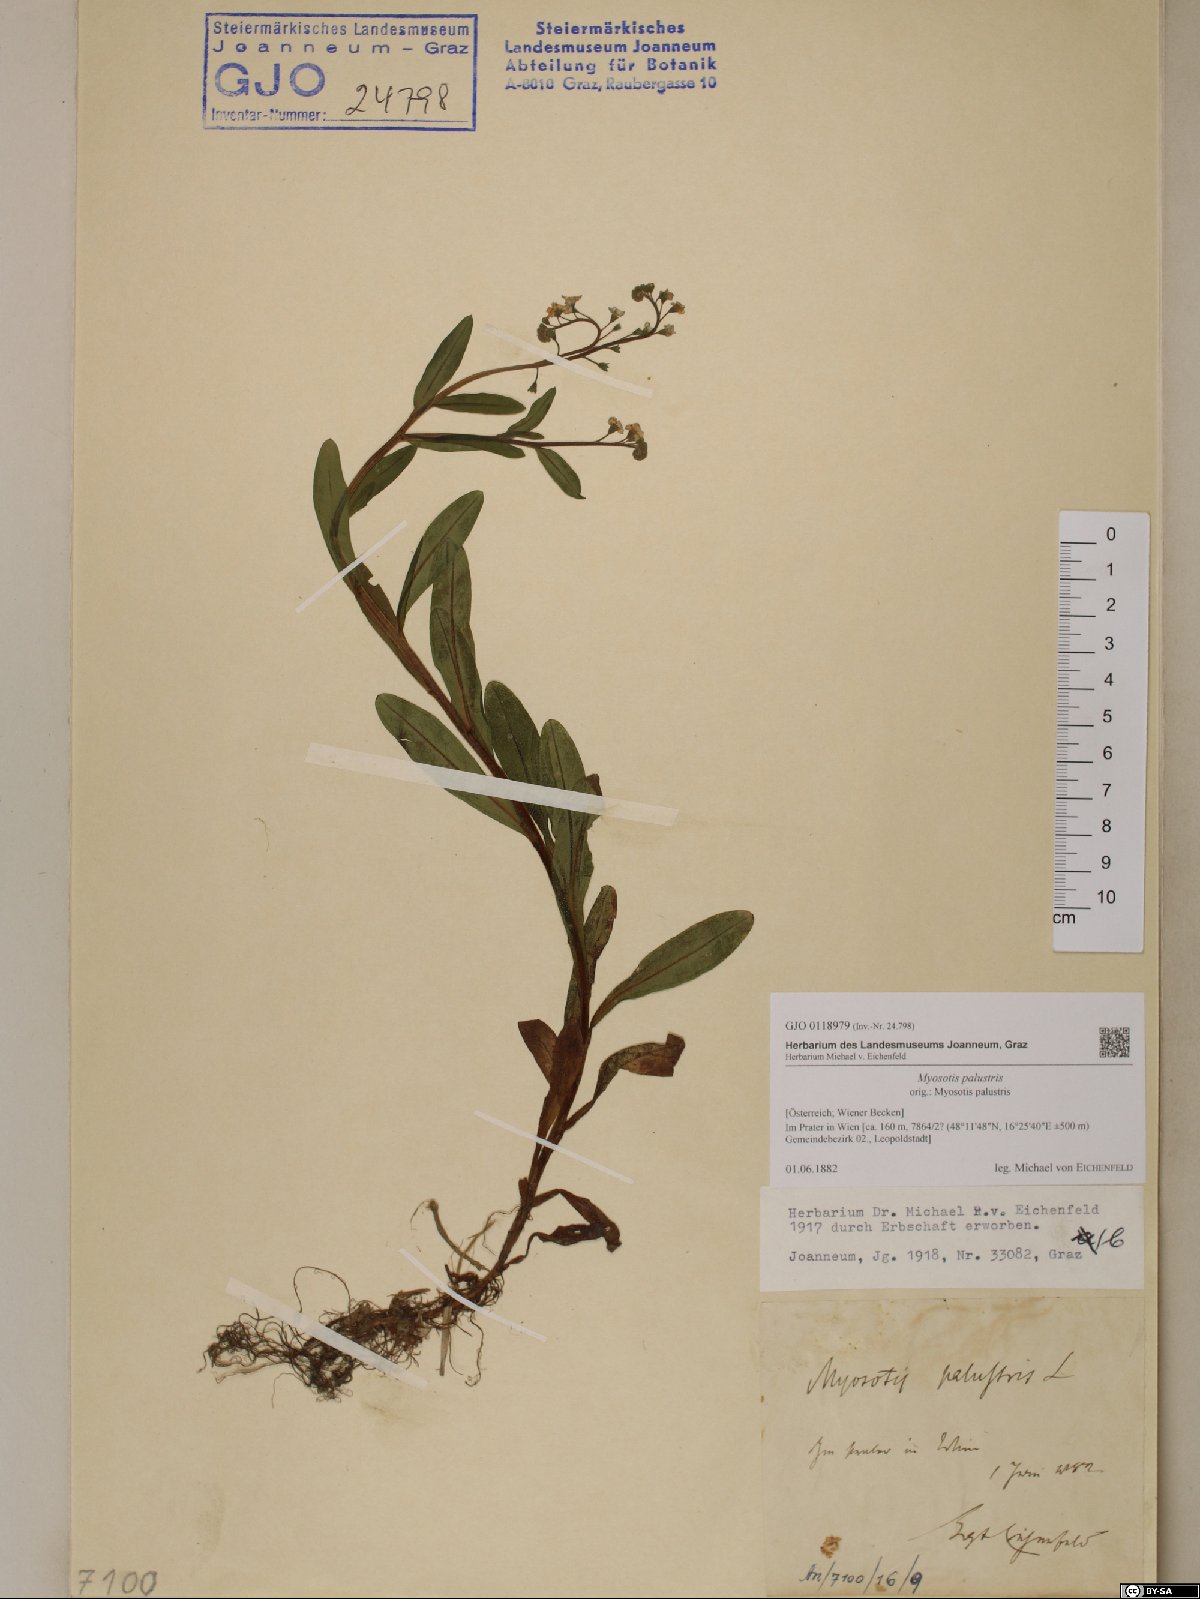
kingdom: Plantae
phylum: Tracheophyta
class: Magnoliopsida
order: Boraginales
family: Boraginaceae
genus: Myosotis
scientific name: Myosotis scorpioides
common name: Water forget-me-not
